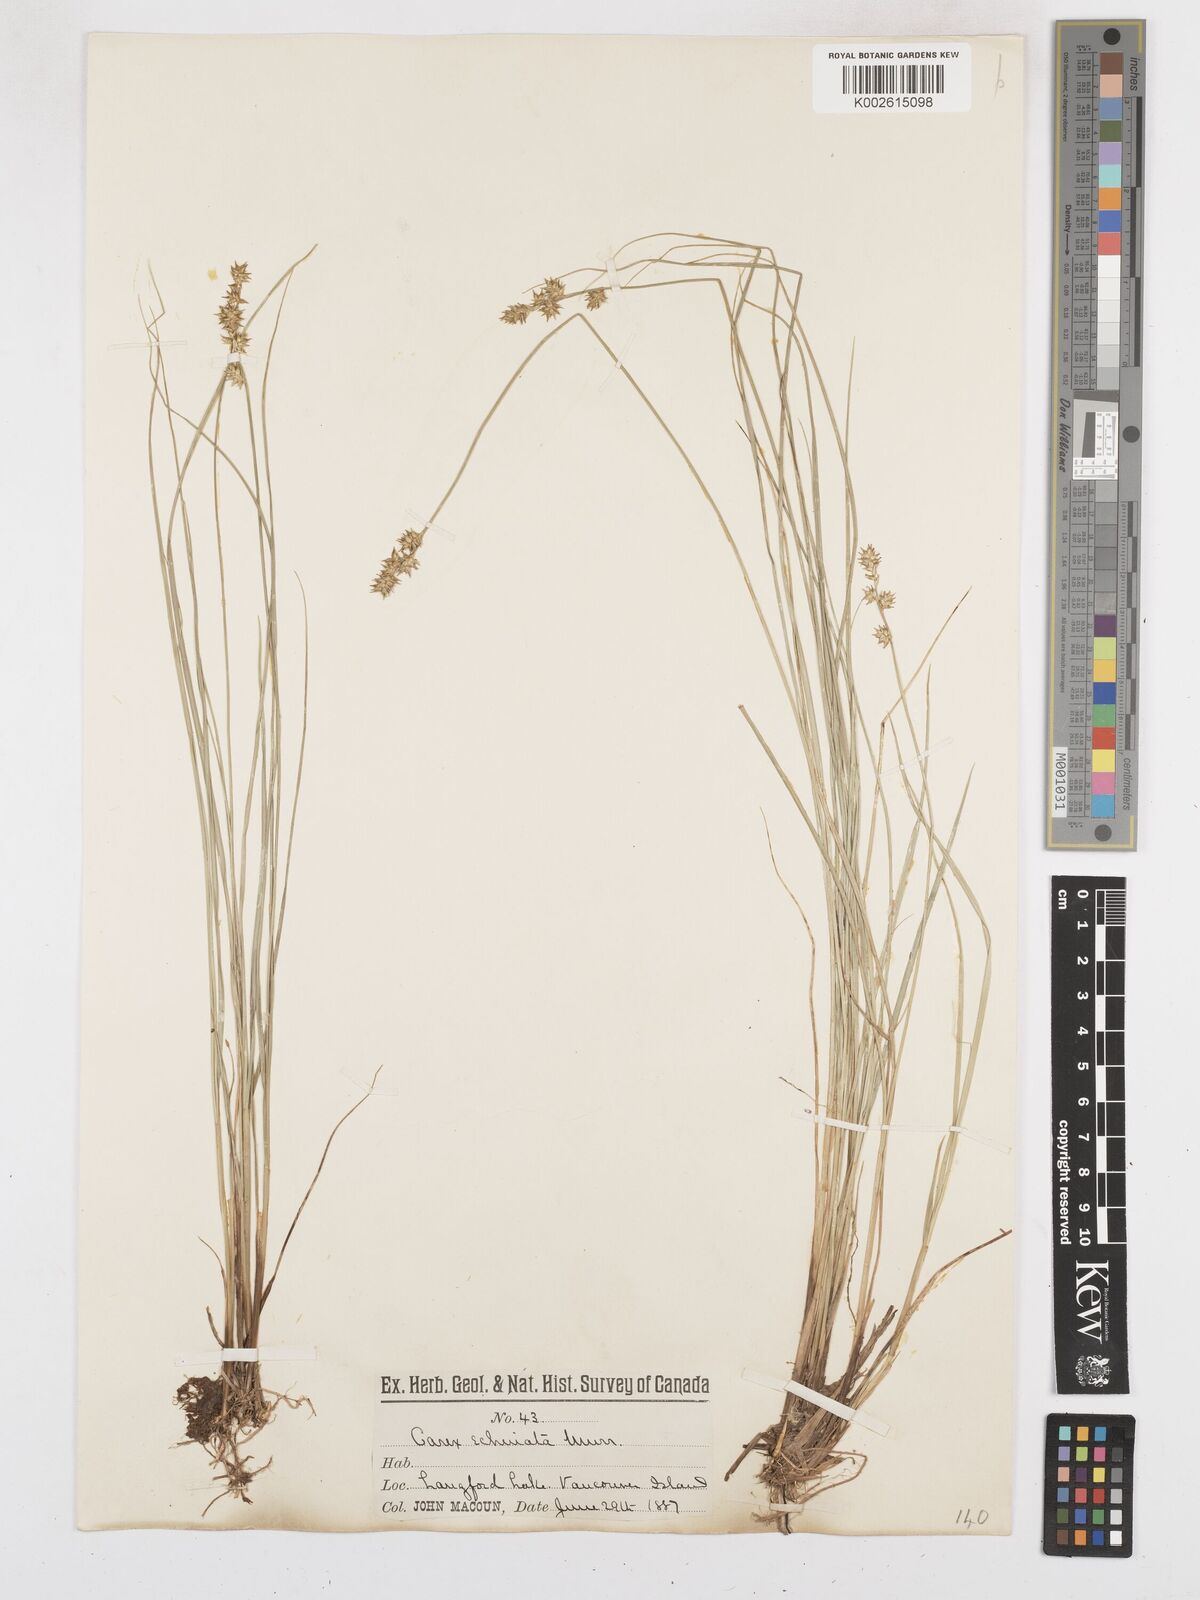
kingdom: Plantae
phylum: Tracheophyta
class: Liliopsida
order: Poales
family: Cyperaceae
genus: Carex
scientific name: Carex echinata
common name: Star sedge
